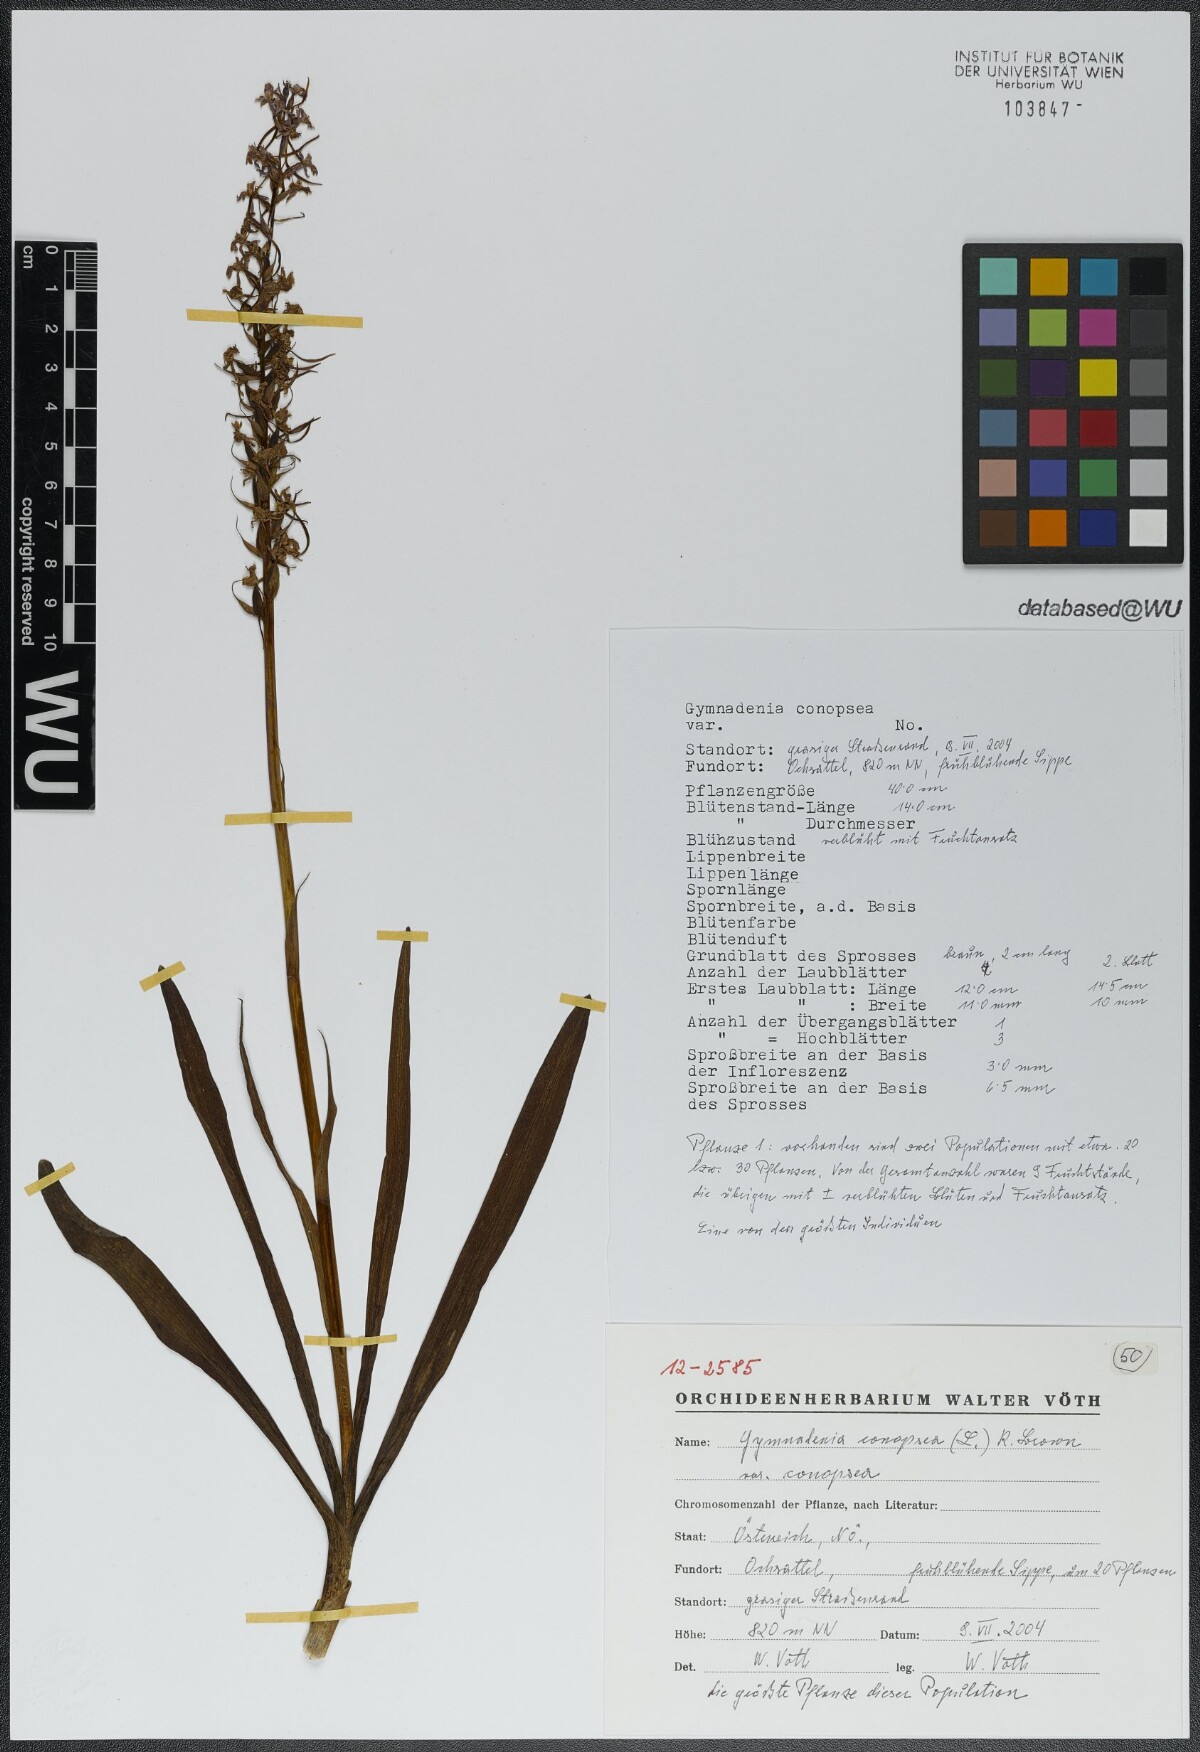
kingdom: Plantae
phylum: Tracheophyta
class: Liliopsida
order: Asparagales
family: Orchidaceae
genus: Gymnadenia
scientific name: Gymnadenia conopsea
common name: Fragrant orchid
